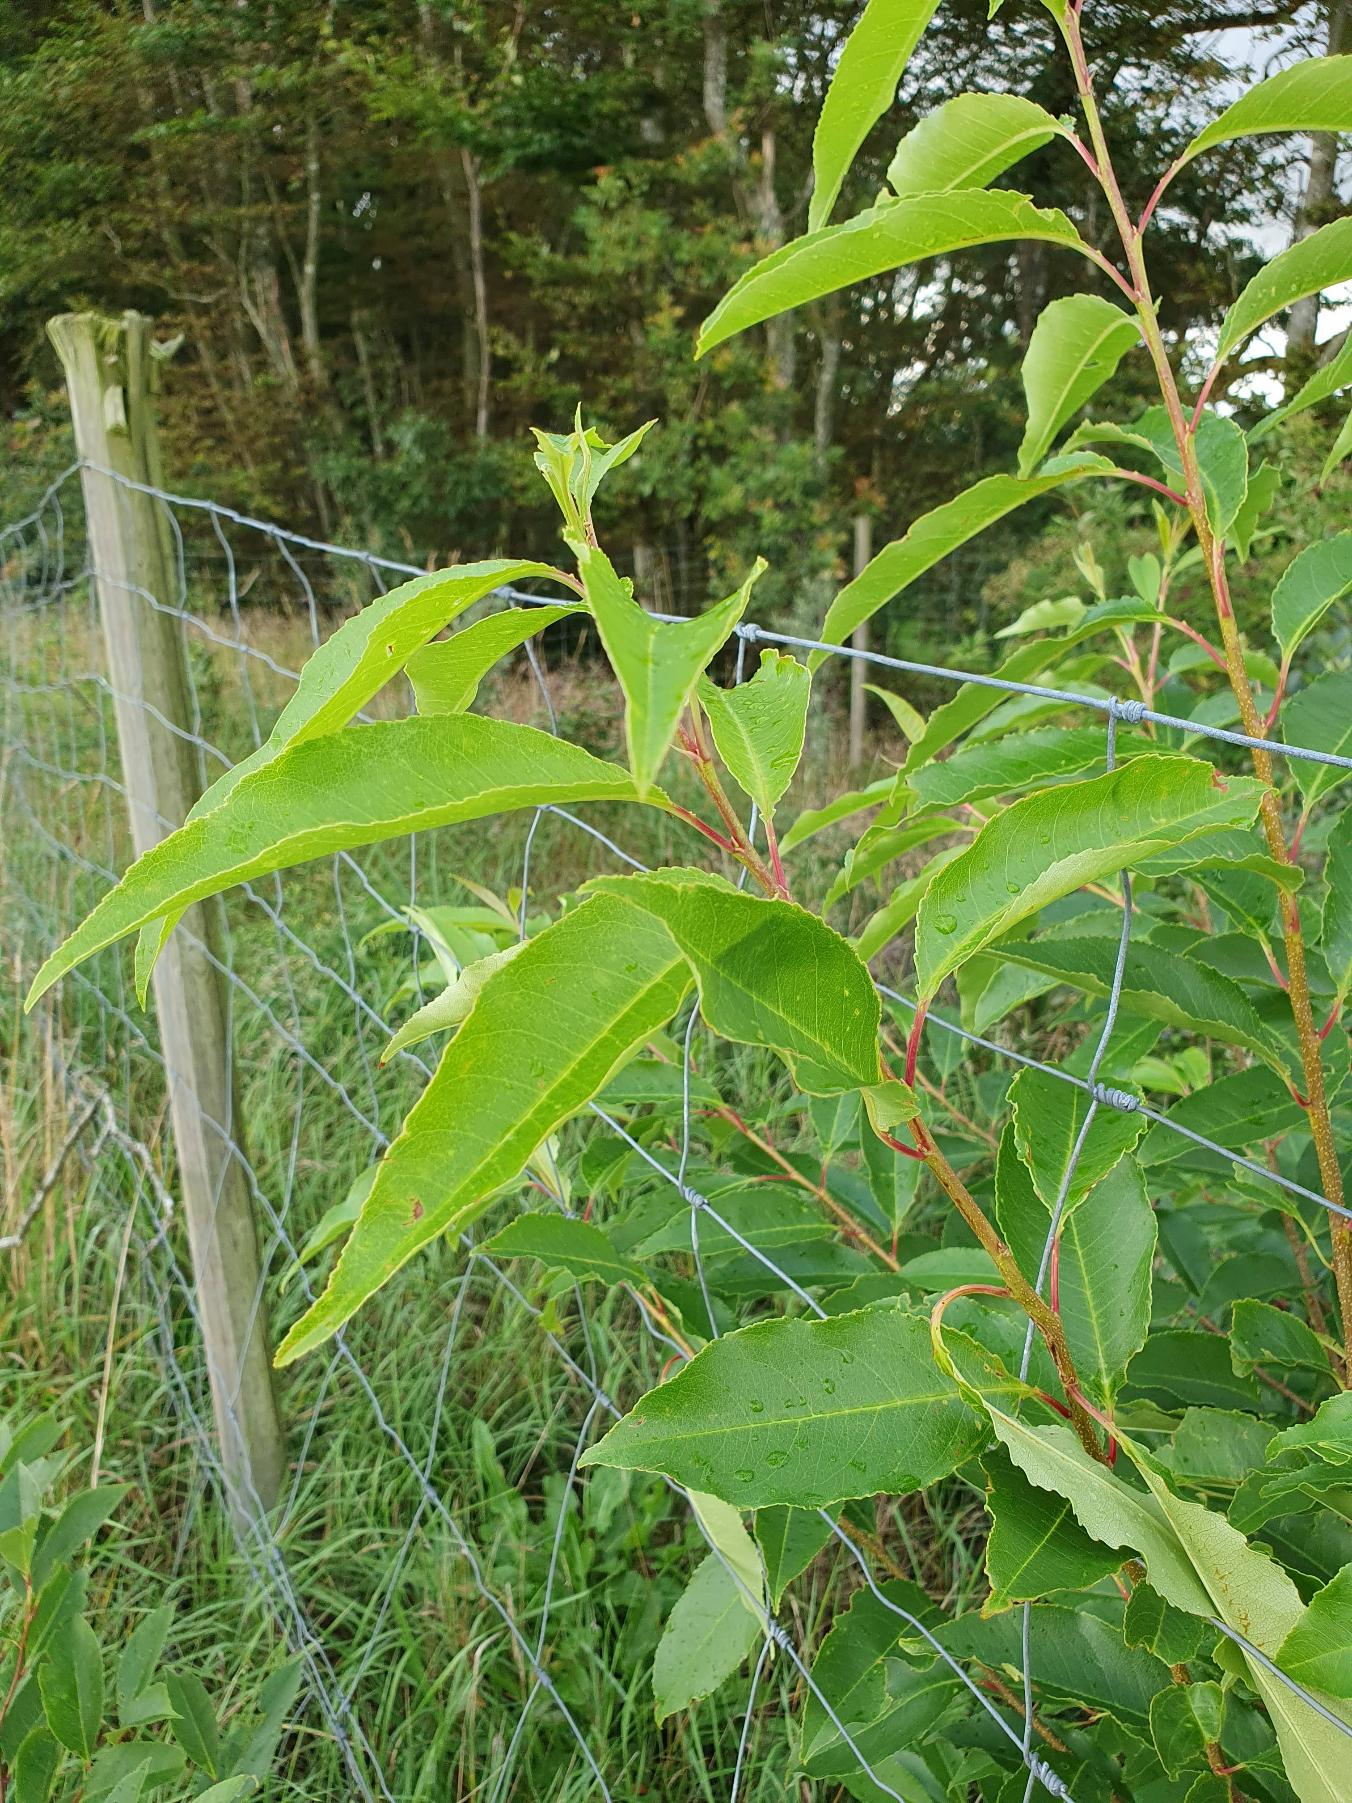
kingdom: Plantae
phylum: Tracheophyta
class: Magnoliopsida
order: Rosales
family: Rosaceae
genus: Prunus
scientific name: Prunus serotina
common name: Glansbladet hæg
